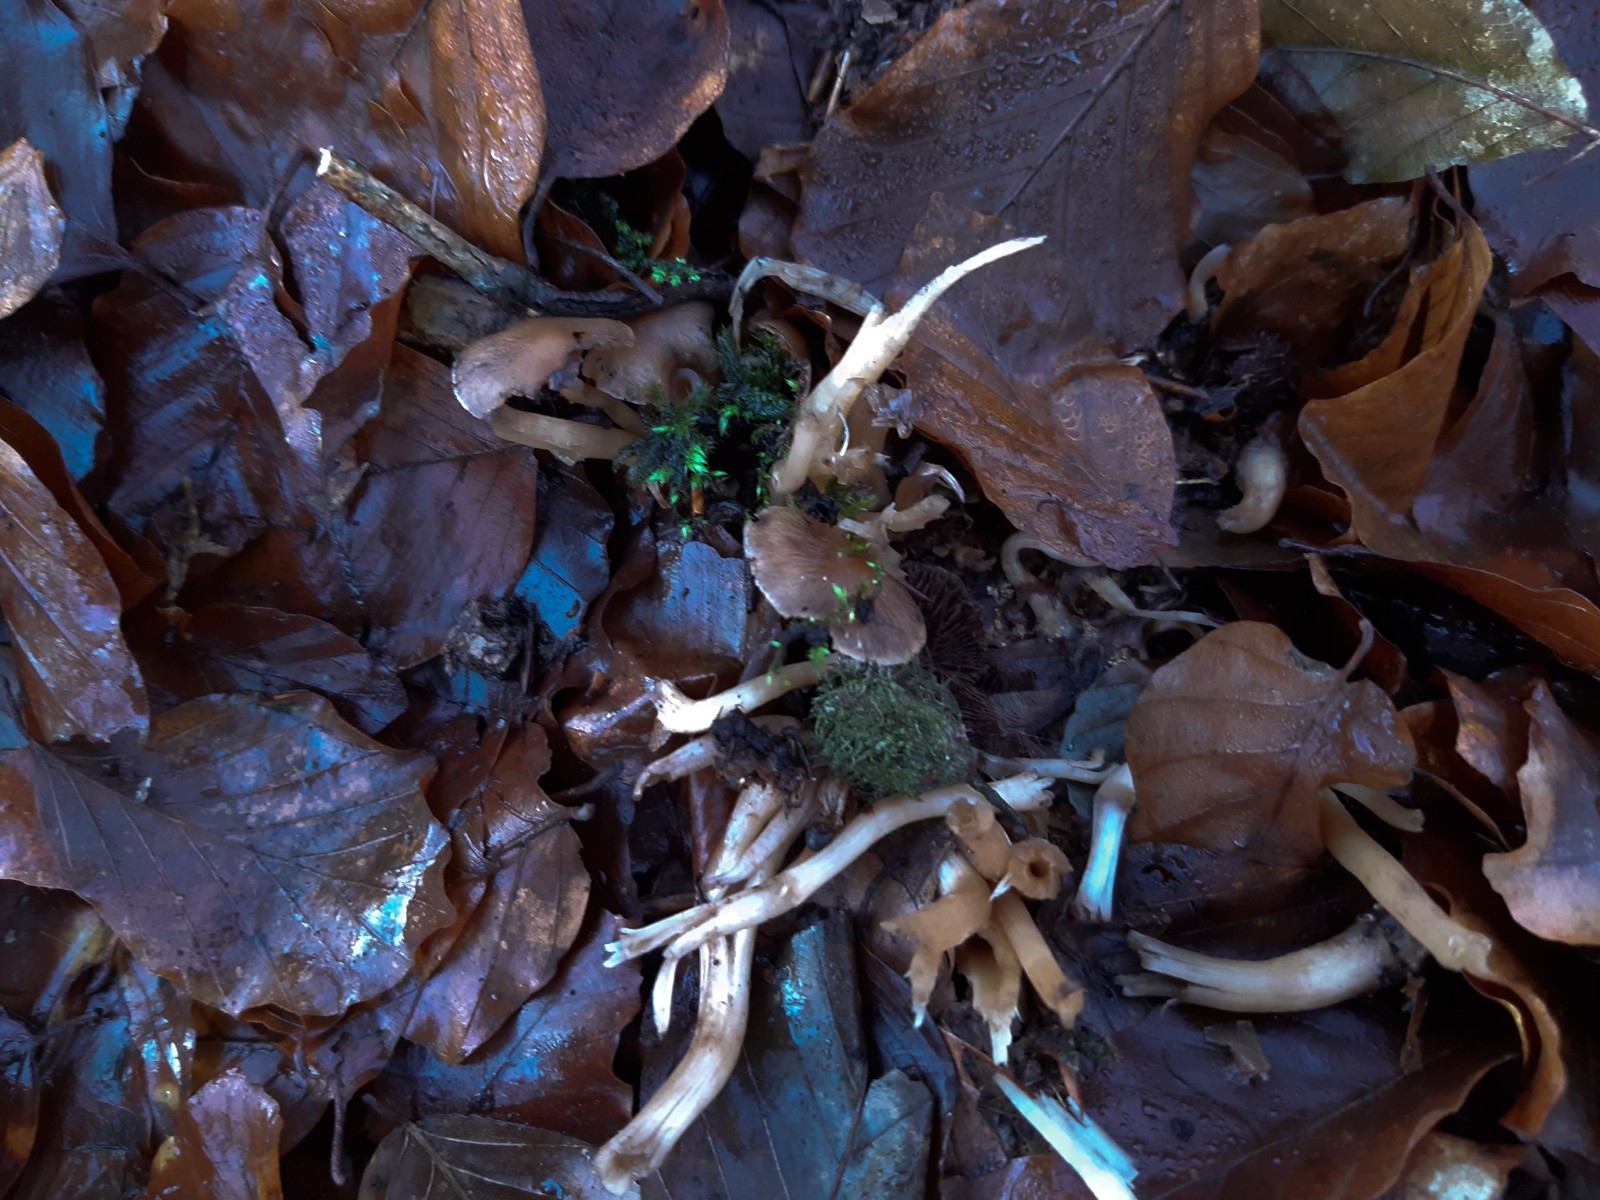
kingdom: Fungi
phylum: Basidiomycota
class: Agaricomycetes
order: Agaricales
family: Psathyrellaceae
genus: Psathyrella
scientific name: Psathyrella
